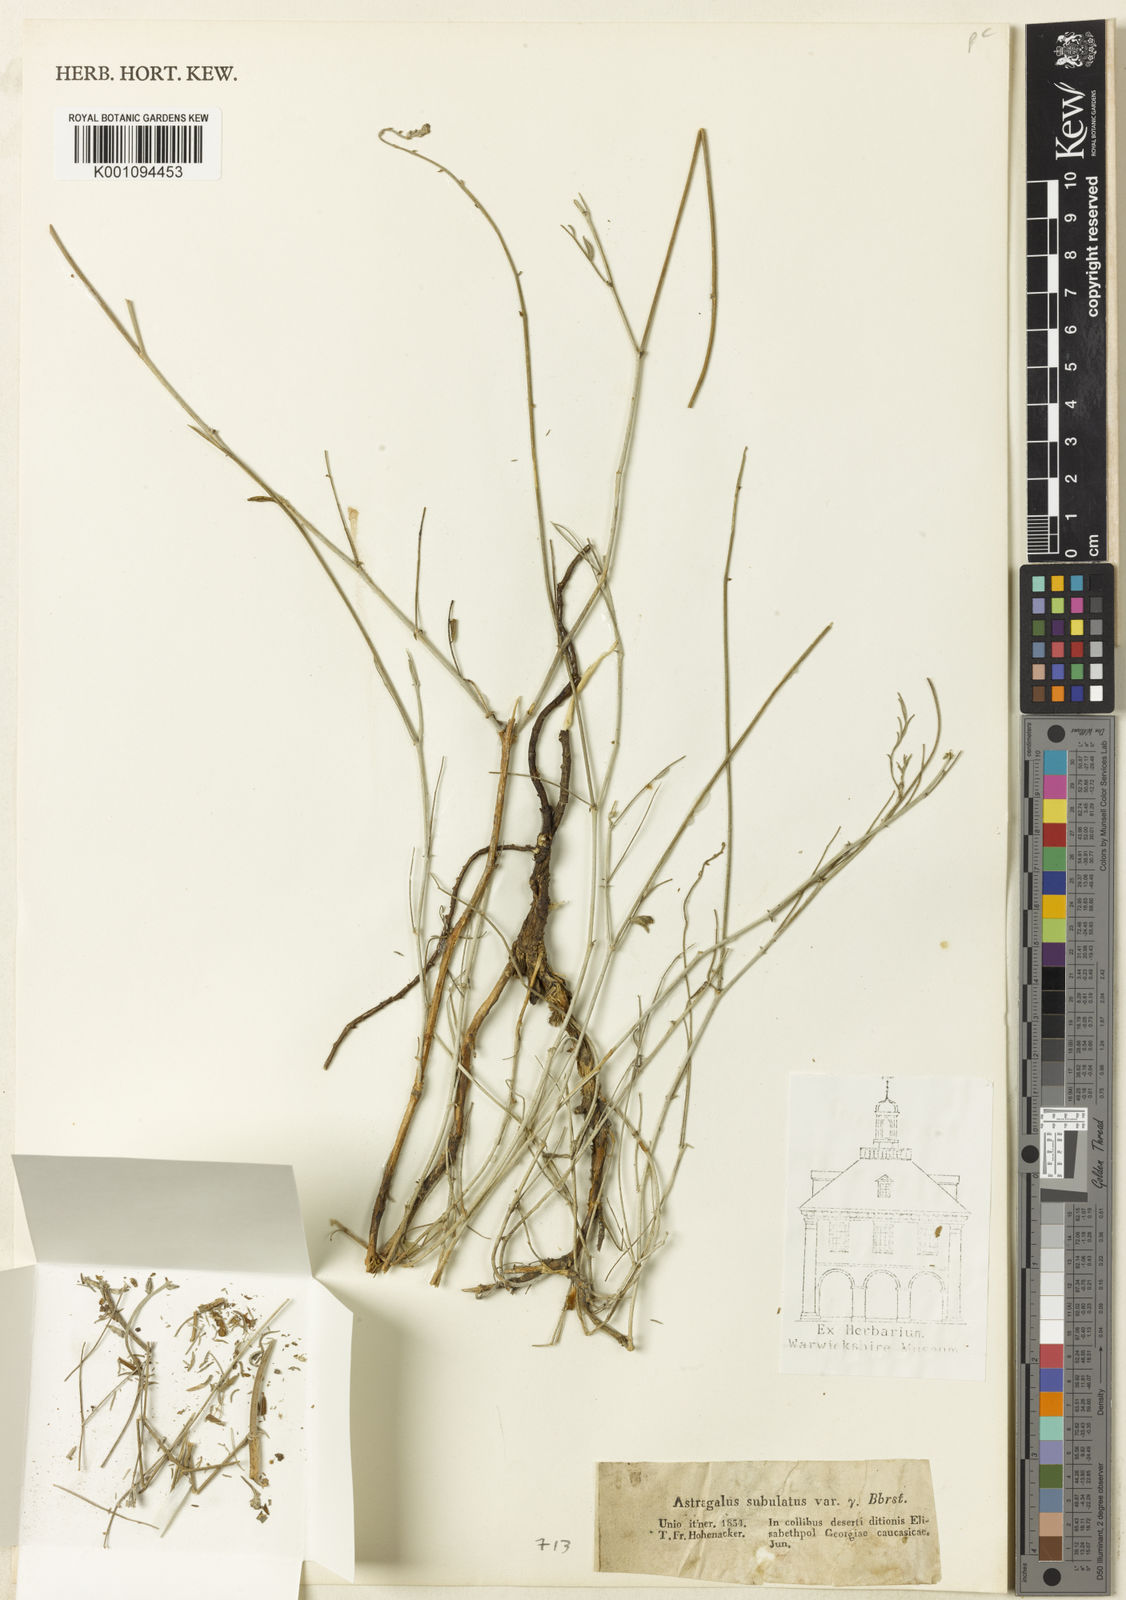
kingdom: Plantae
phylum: Tracheophyta
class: Magnoliopsida
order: Fabales
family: Fabaceae
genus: Astragalus
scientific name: Astragalus
